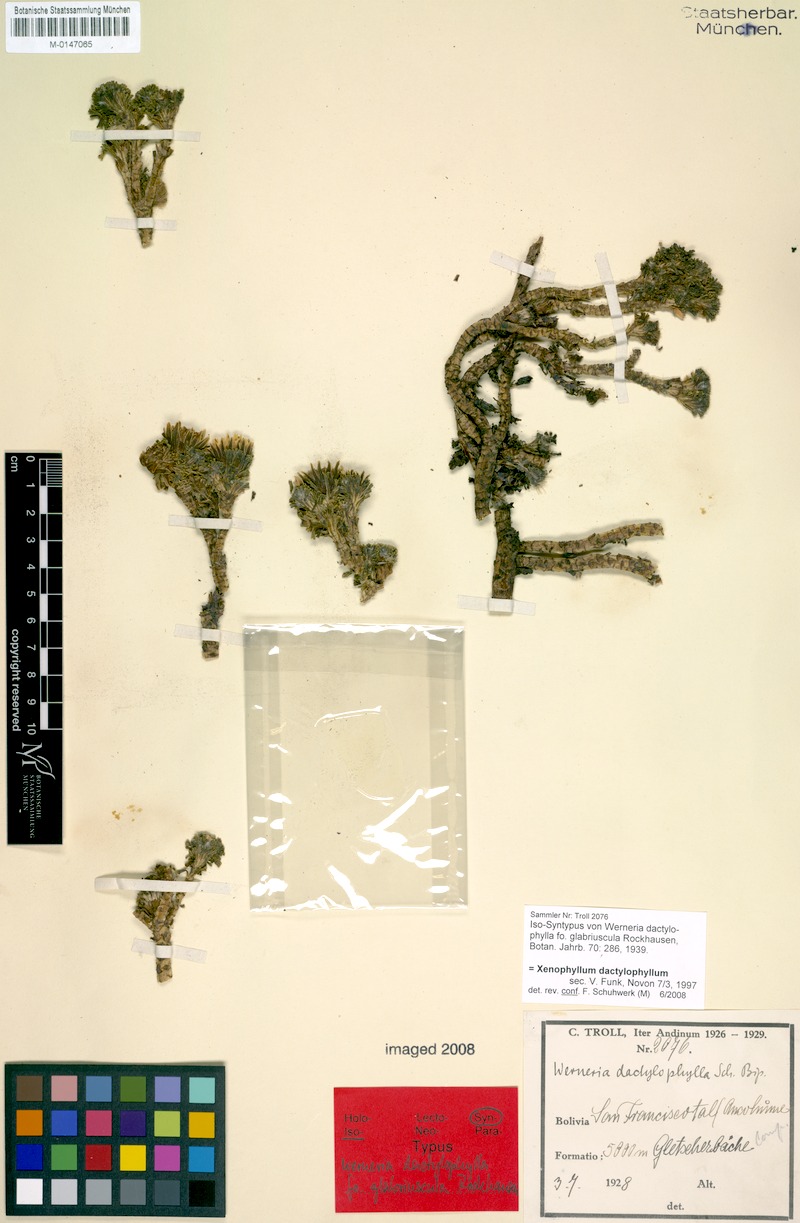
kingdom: Plantae
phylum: Tracheophyta
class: Magnoliopsida
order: Asterales
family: Asteraceae
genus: Werneria
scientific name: Werneria dactylophylla
